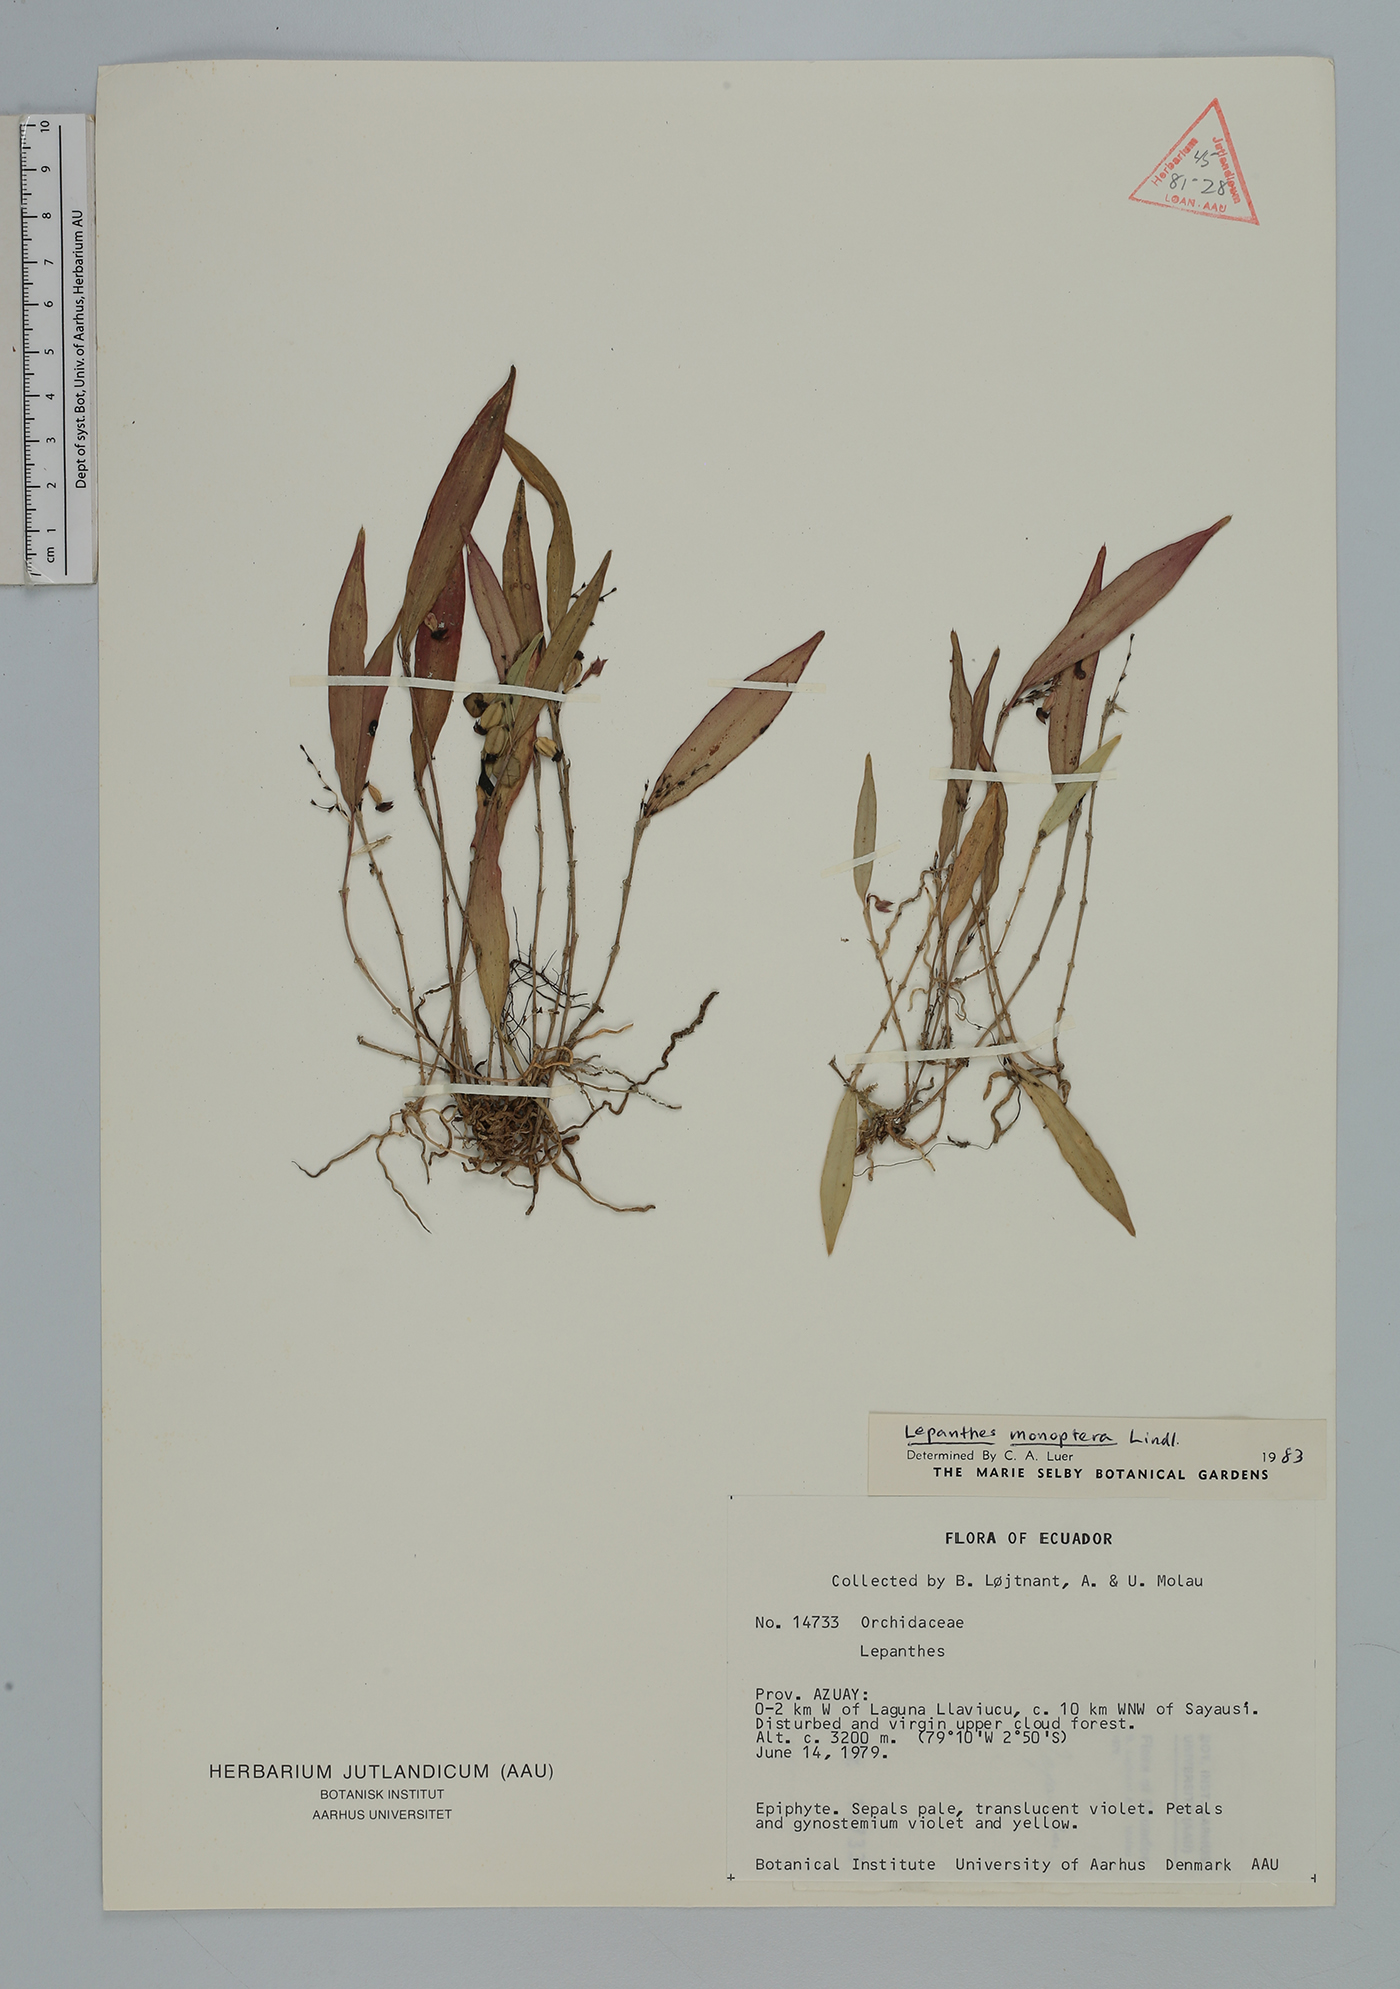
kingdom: Plantae
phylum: Tracheophyta
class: Liliopsida
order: Asparagales
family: Orchidaceae
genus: Lepanthes
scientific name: Lepanthes
